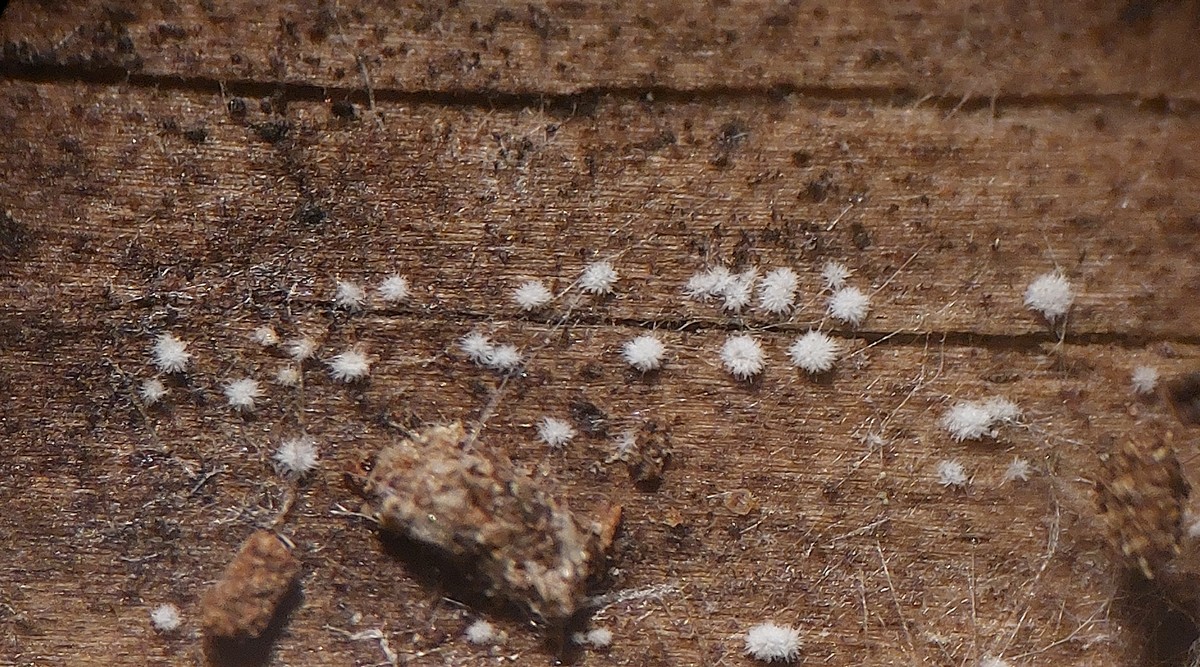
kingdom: Fungi
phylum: Basidiomycota
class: Agaricomycetes
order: Agaricales
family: Tricholomataceae
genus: Pseudolasiobolus
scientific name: Pseudolasiobolus minutissimus
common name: plejadeskål
